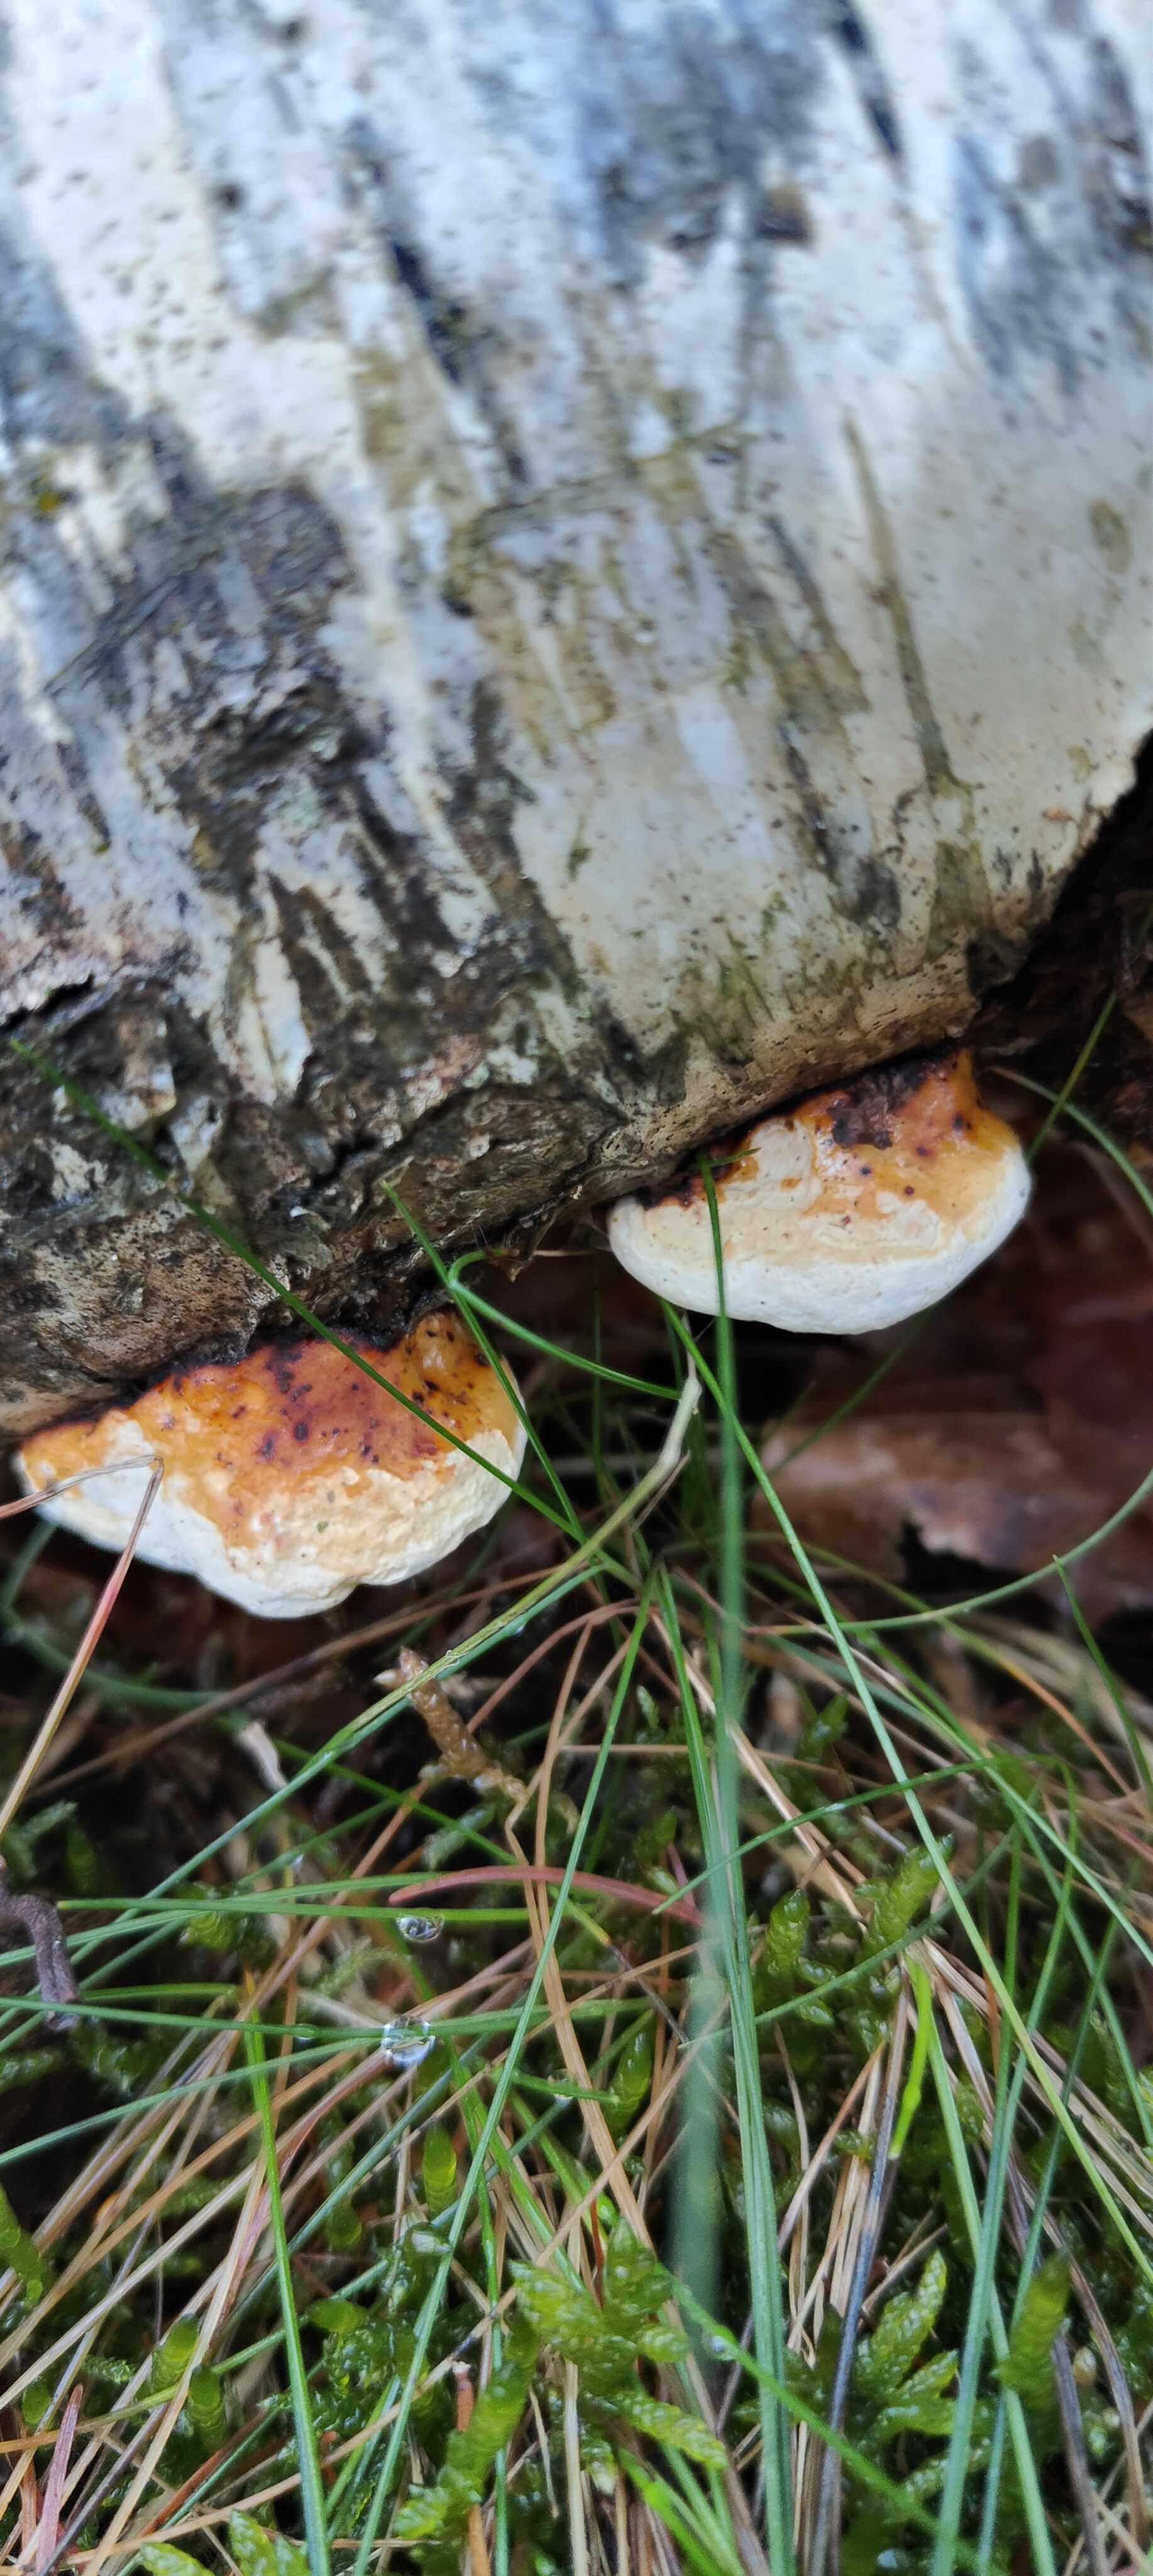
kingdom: Fungi
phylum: Basidiomycota
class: Agaricomycetes
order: Polyporales
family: Fomitopsidaceae
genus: Fomitopsis
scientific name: Fomitopsis pinicola
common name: randbæltet hovporesvamp
